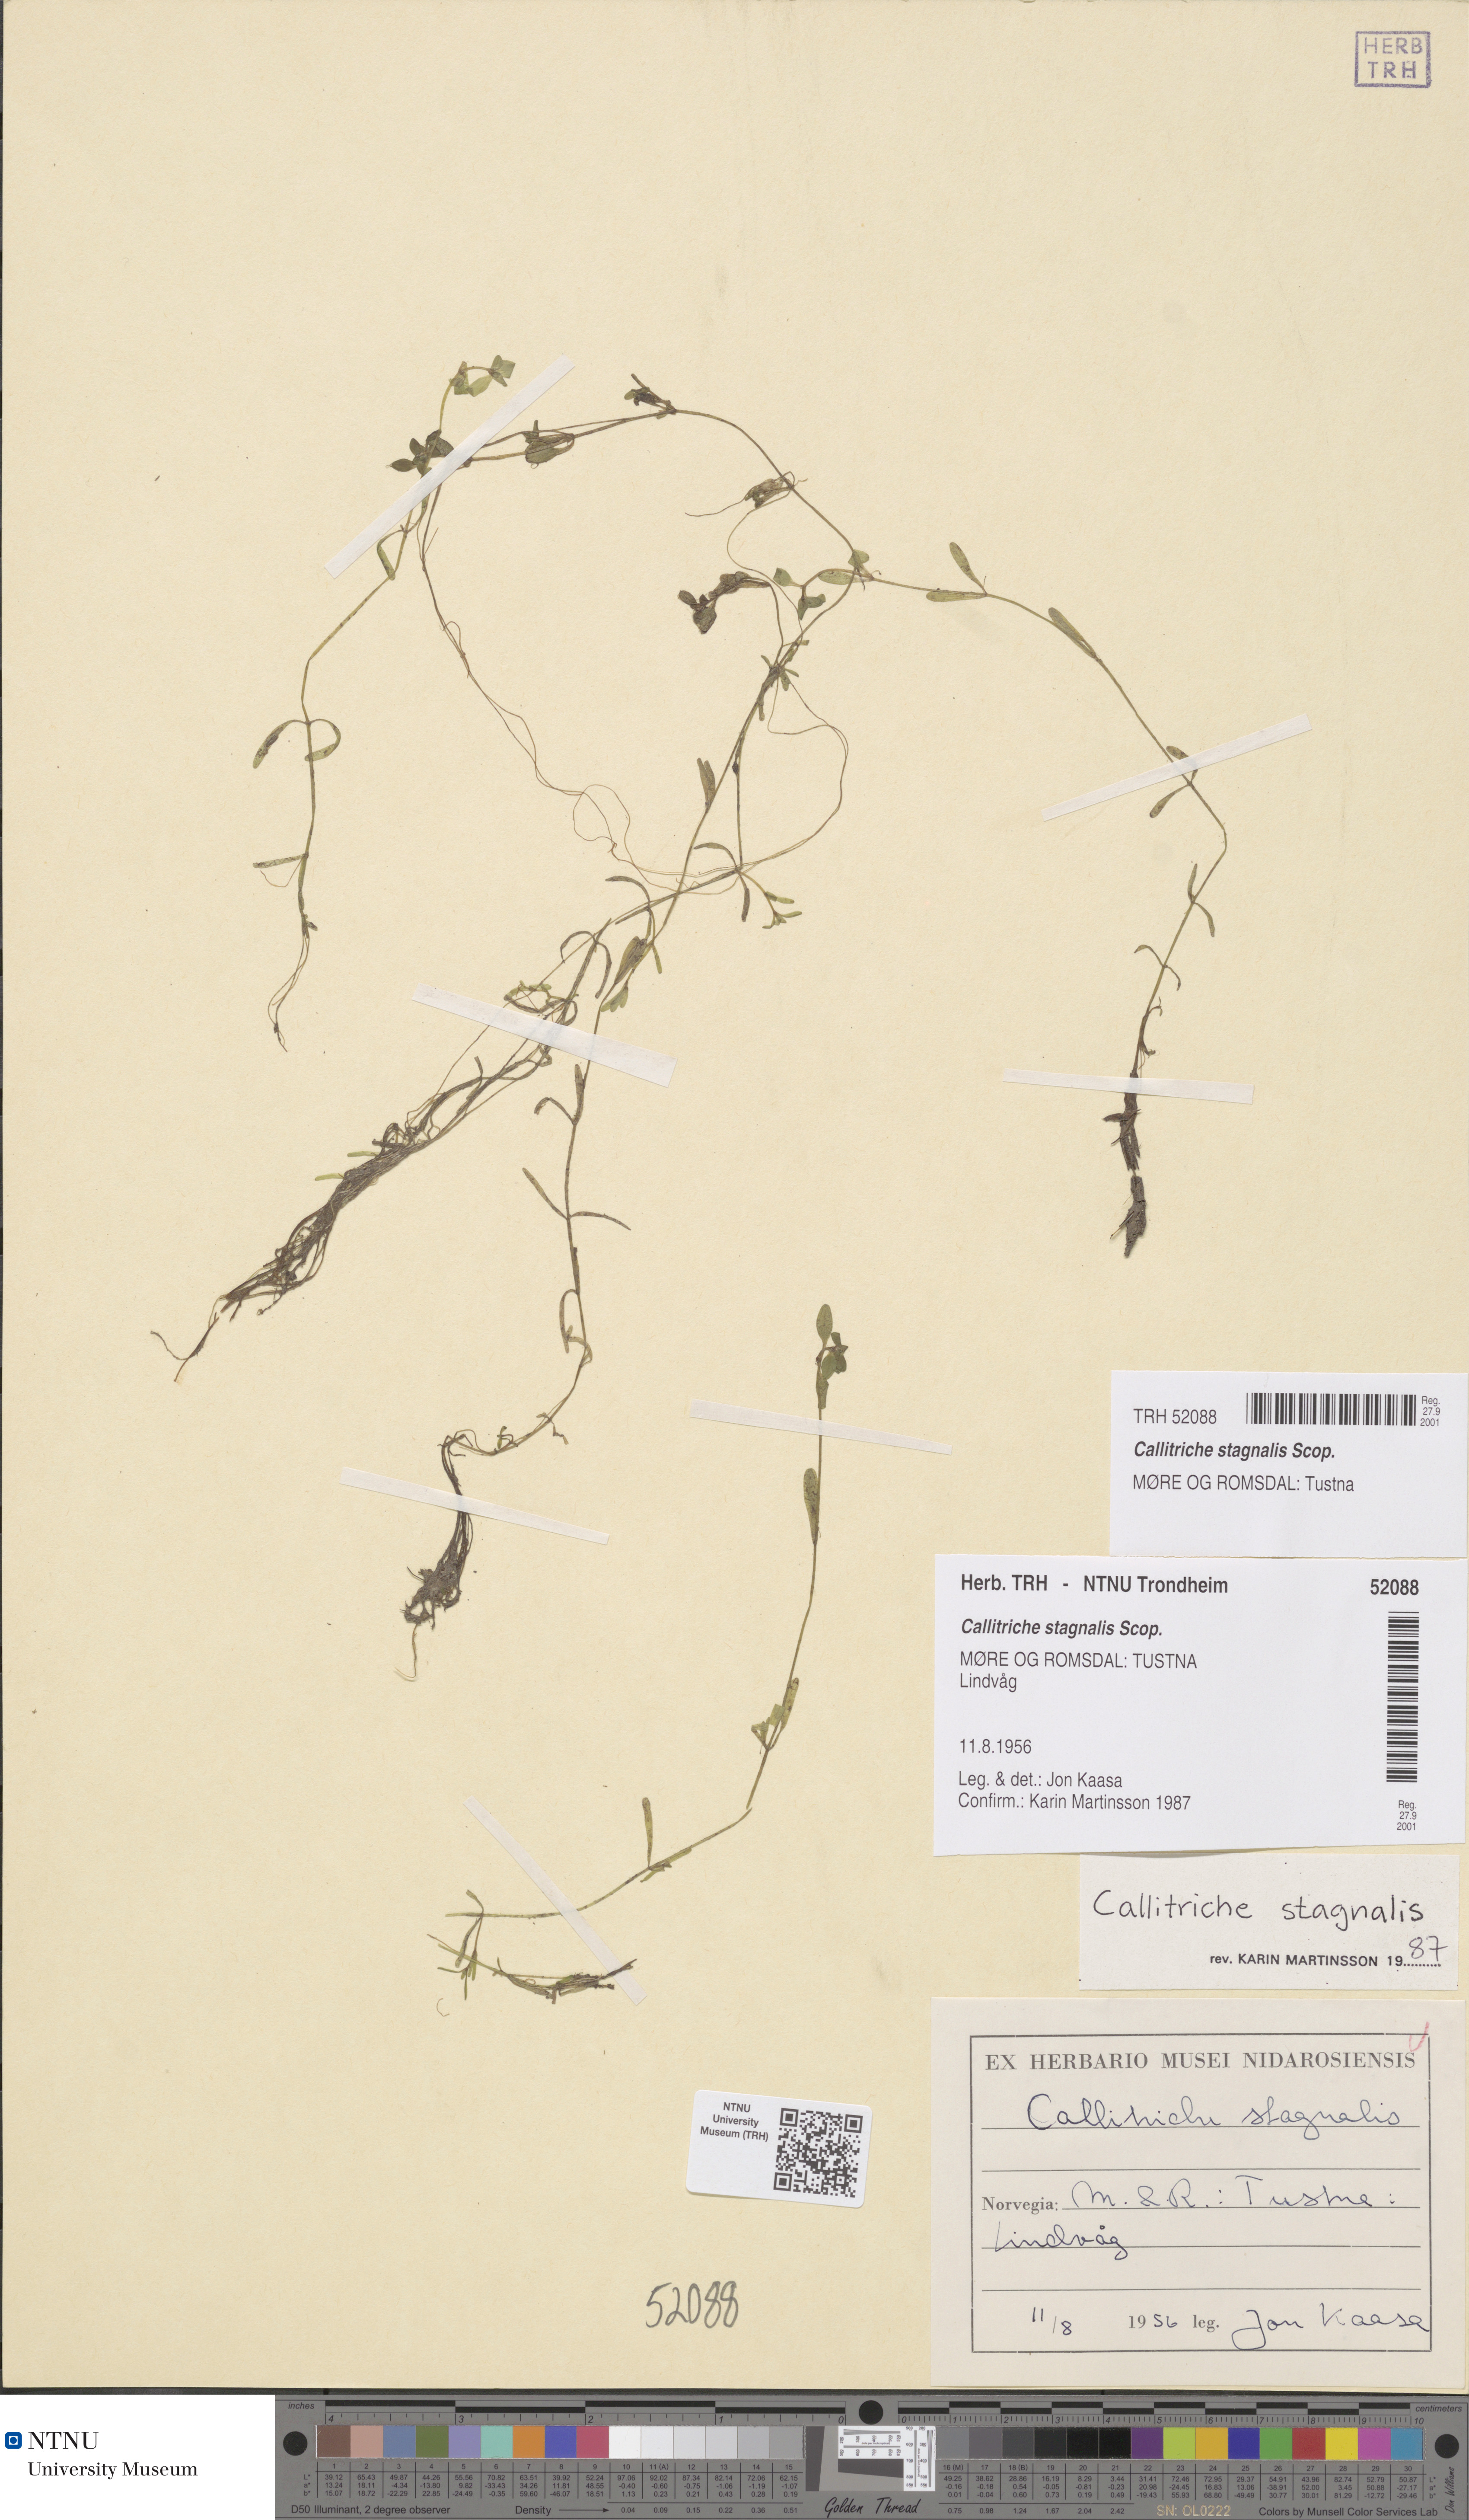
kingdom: Plantae
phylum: Tracheophyta
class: Magnoliopsida
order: Lamiales
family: Plantaginaceae
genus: Callitriche
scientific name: Callitriche stagnalis
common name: Common water-starwort
